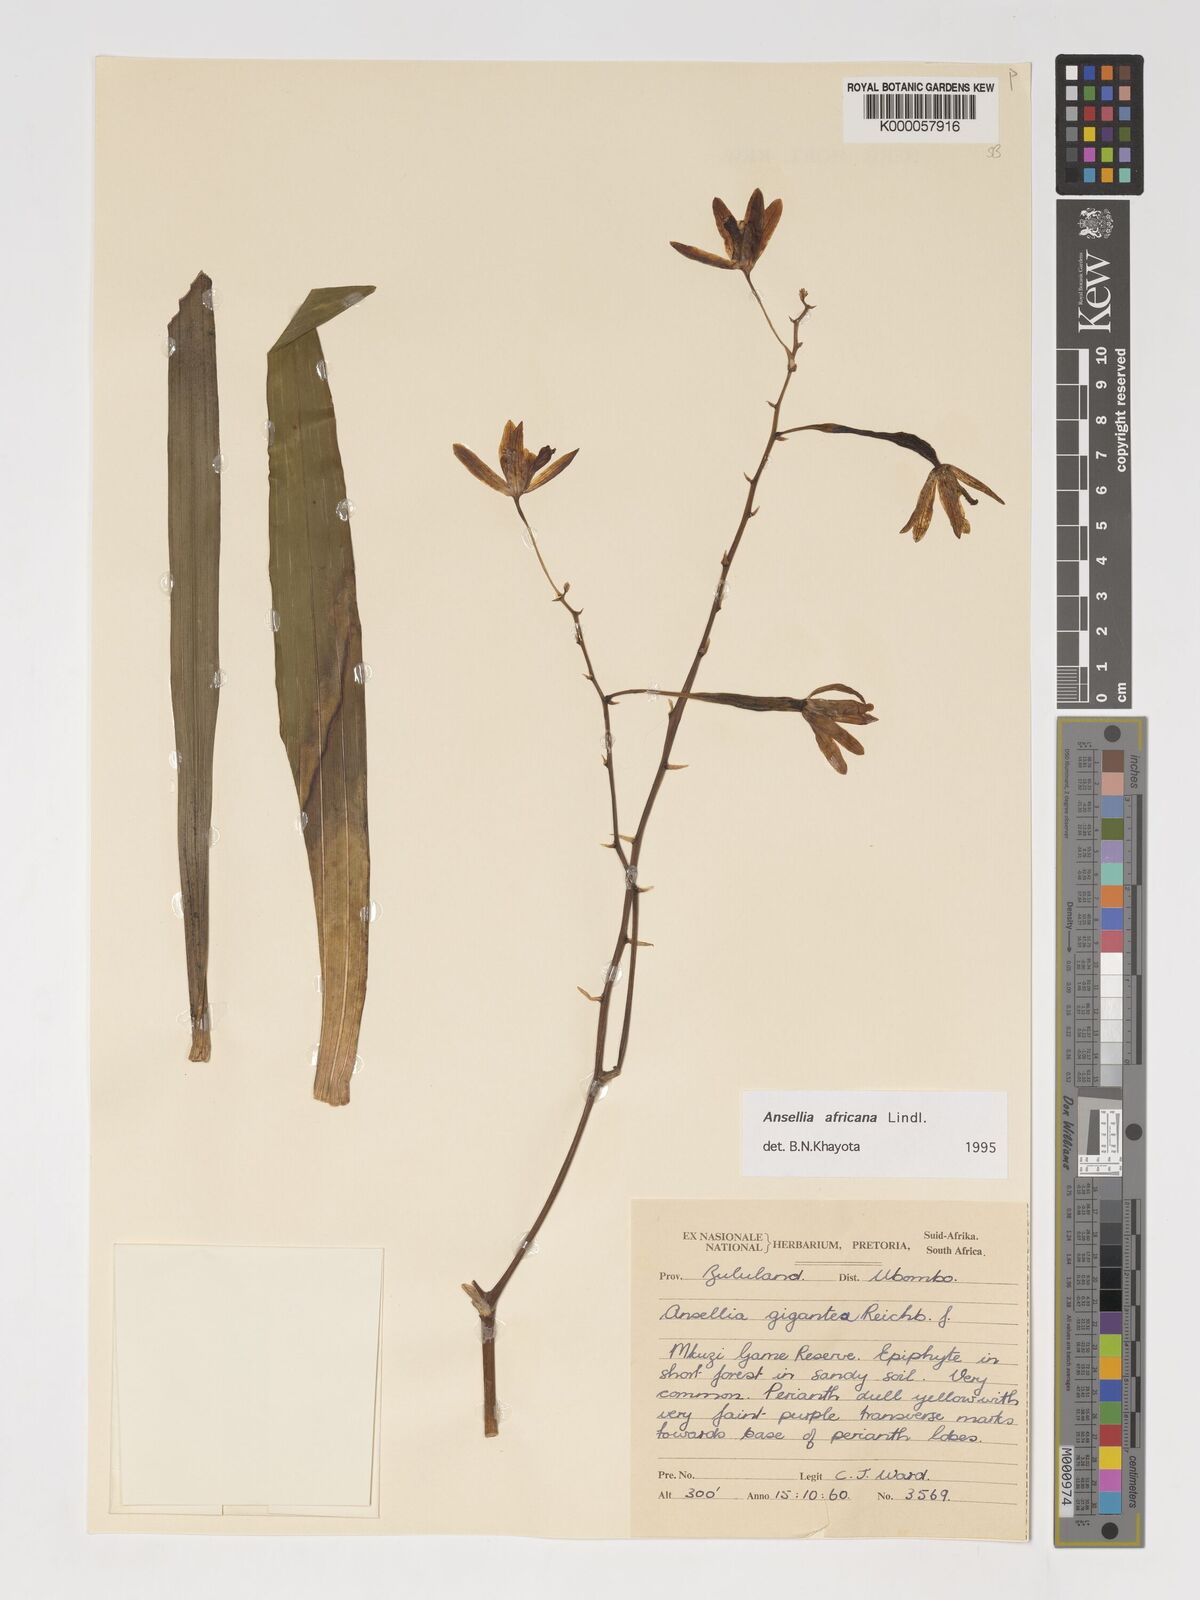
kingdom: Plantae
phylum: Tracheophyta
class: Liliopsida
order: Asparagales
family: Orchidaceae
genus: Ansellia
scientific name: Ansellia africana
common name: African ansellia
